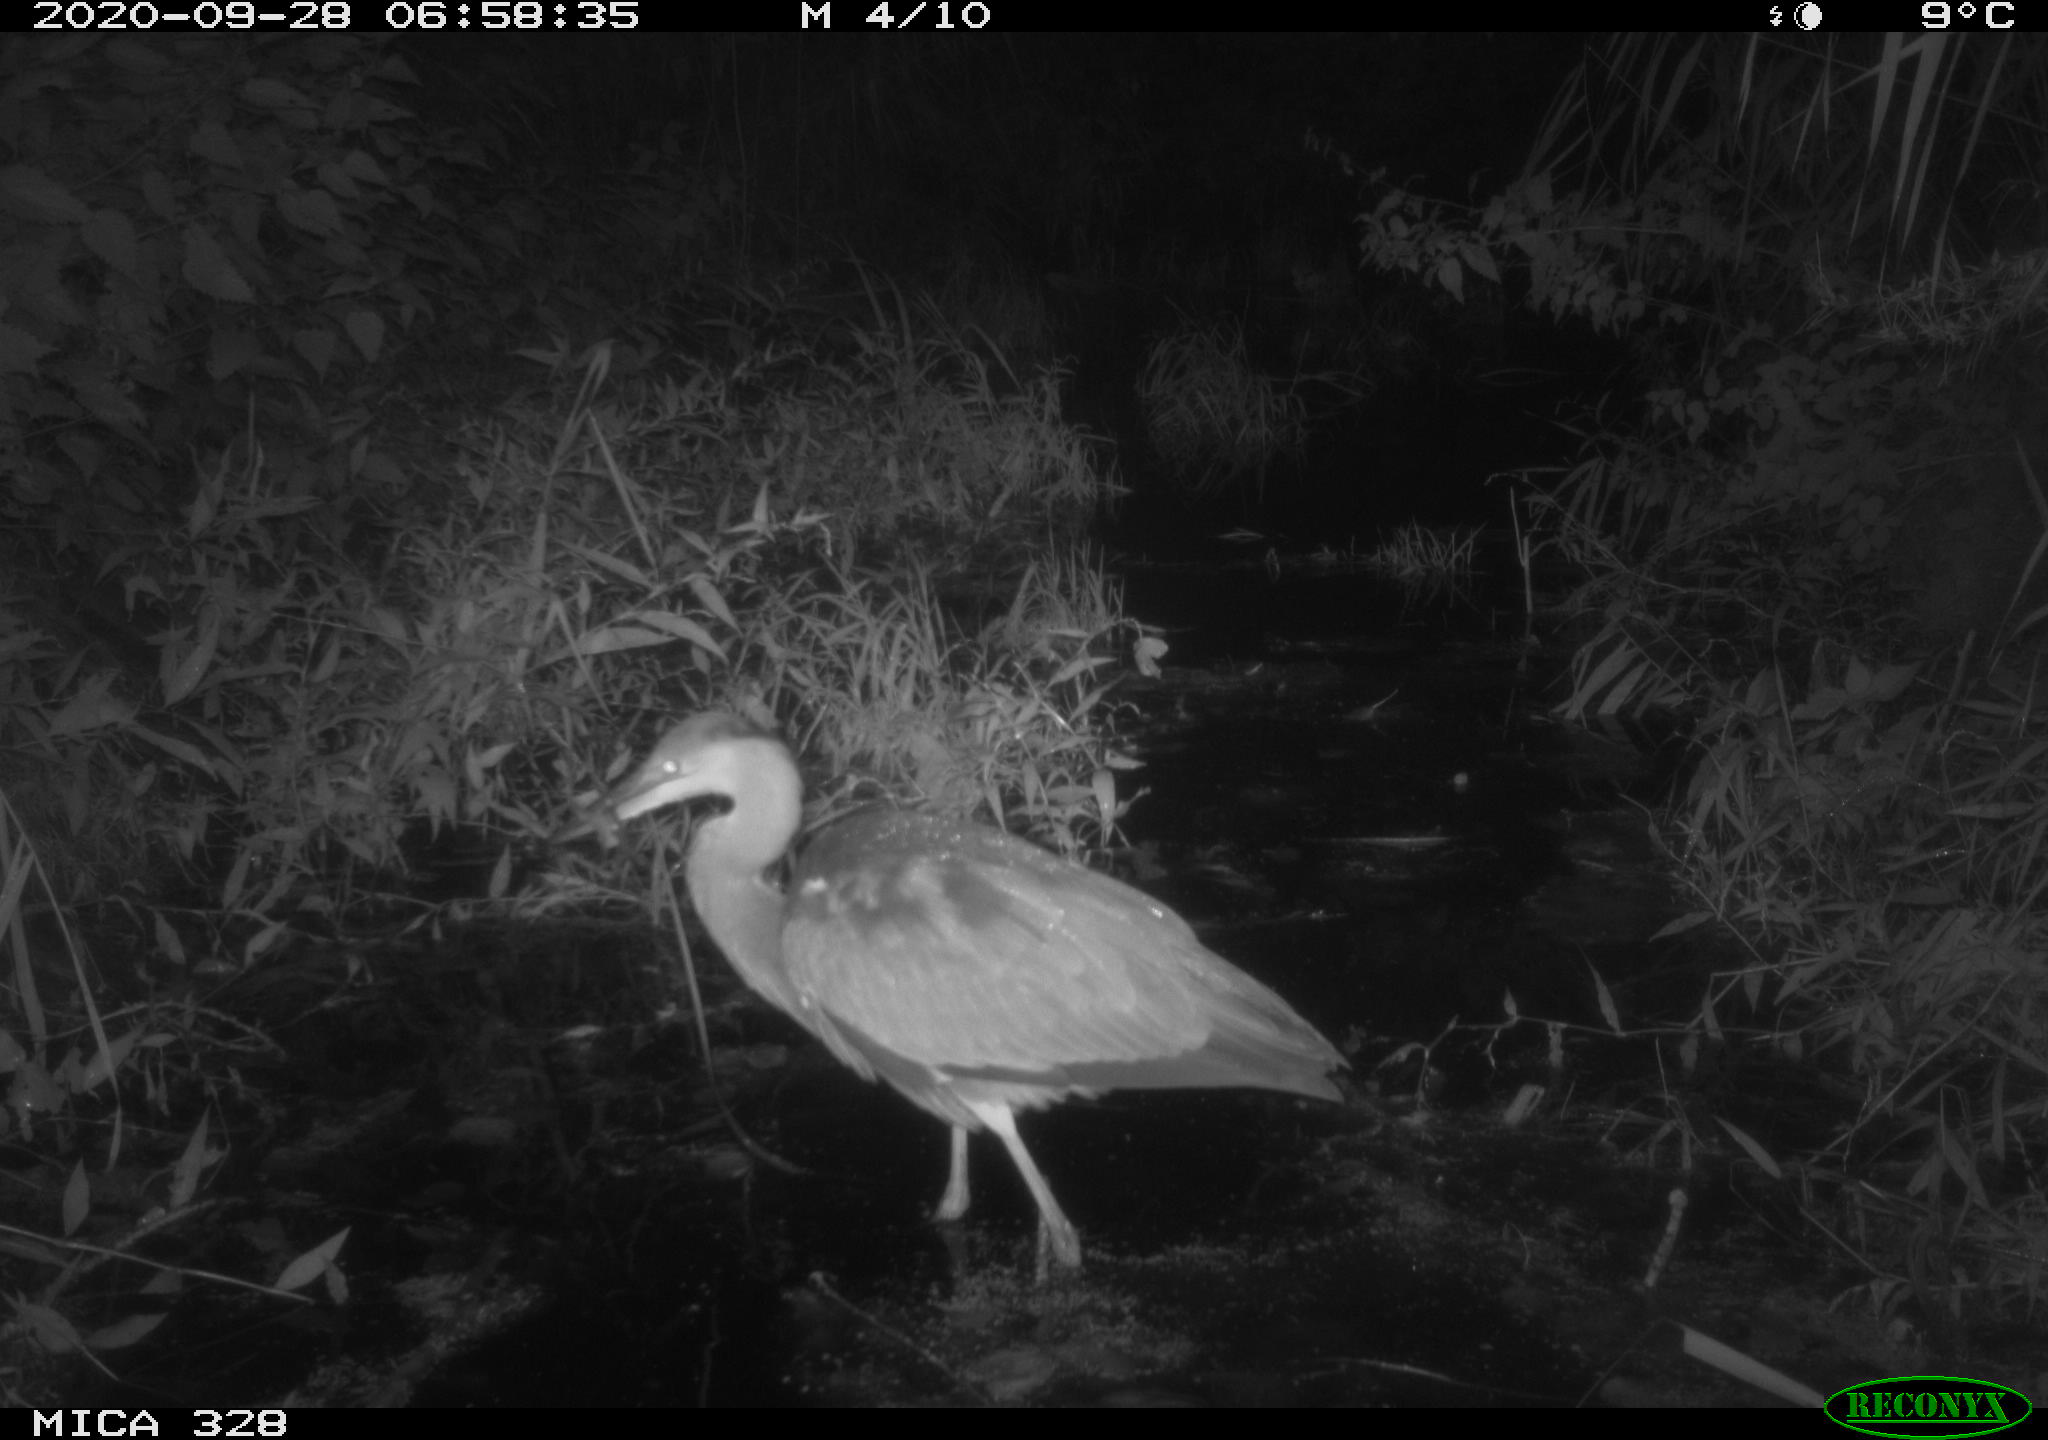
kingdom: Animalia
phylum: Chordata
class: Aves
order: Pelecaniformes
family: Ardeidae
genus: Ardea
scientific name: Ardea cinerea
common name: Grey heron
